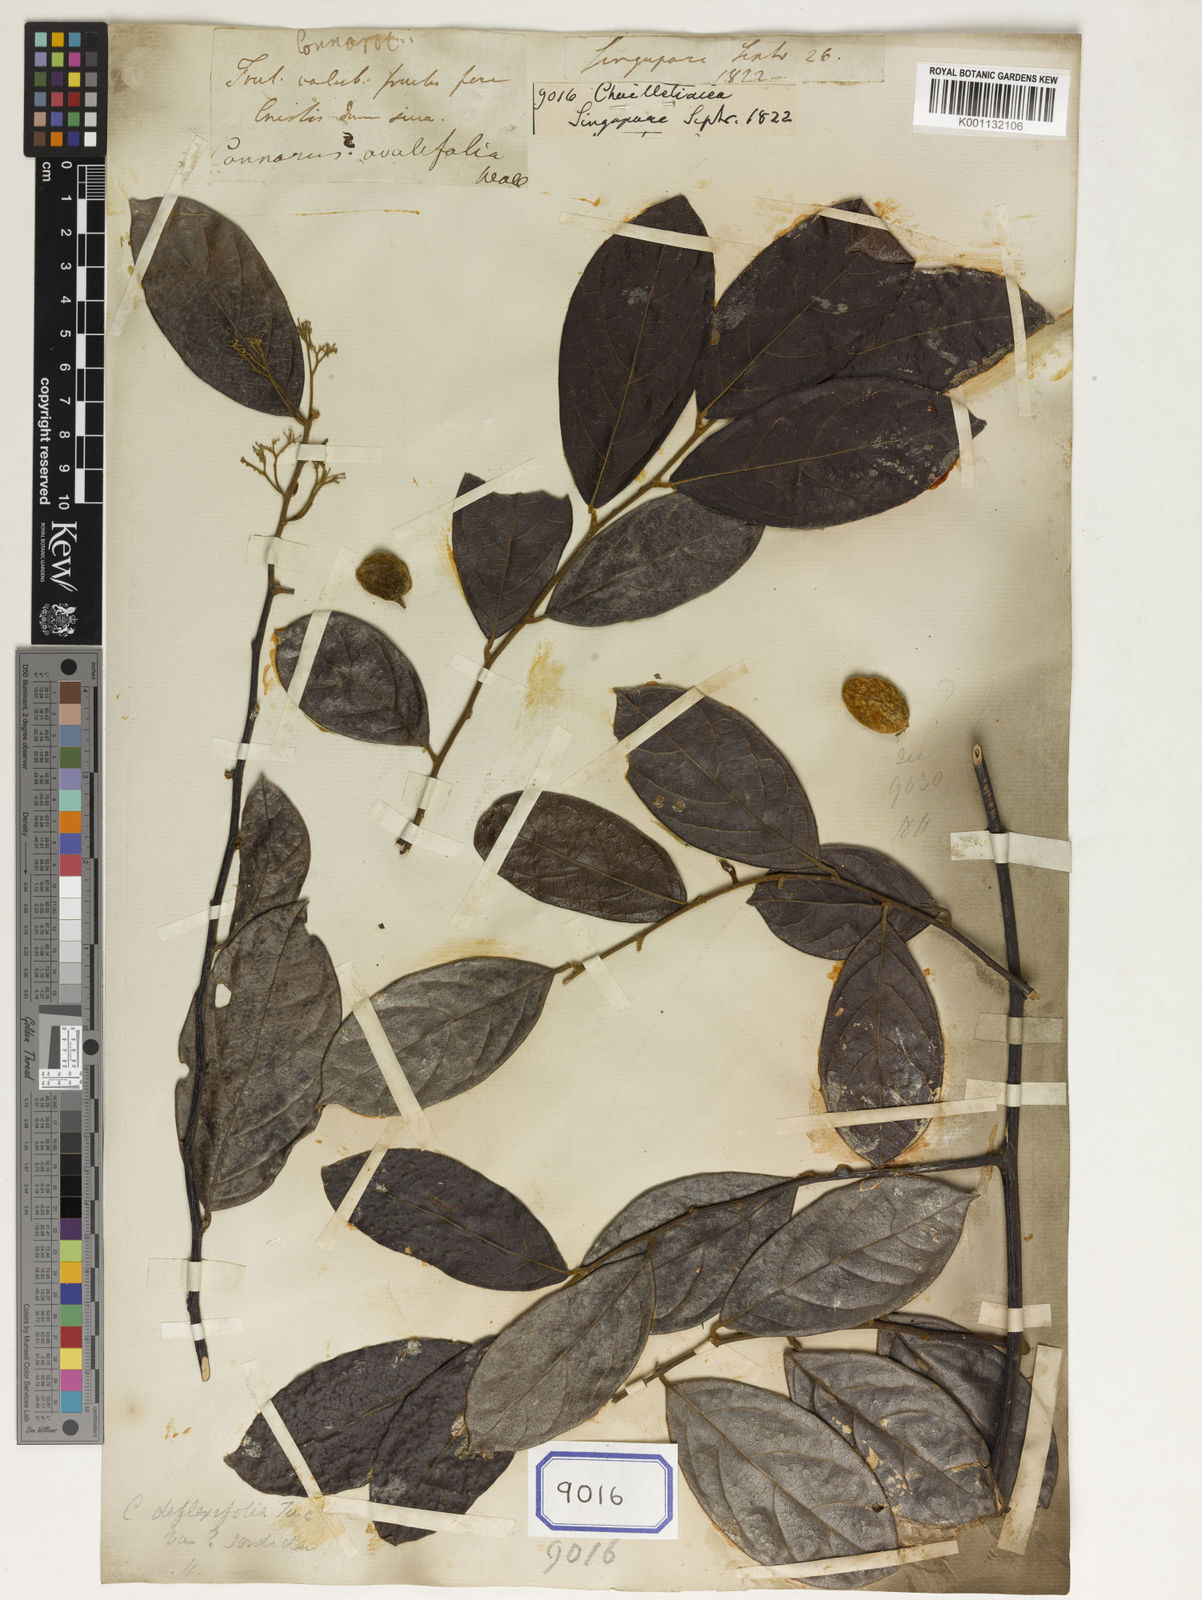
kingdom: Plantae
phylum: Tracheophyta
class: Magnoliopsida
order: Malpighiales
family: Dichapetalaceae
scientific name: Dichapetalaceae
